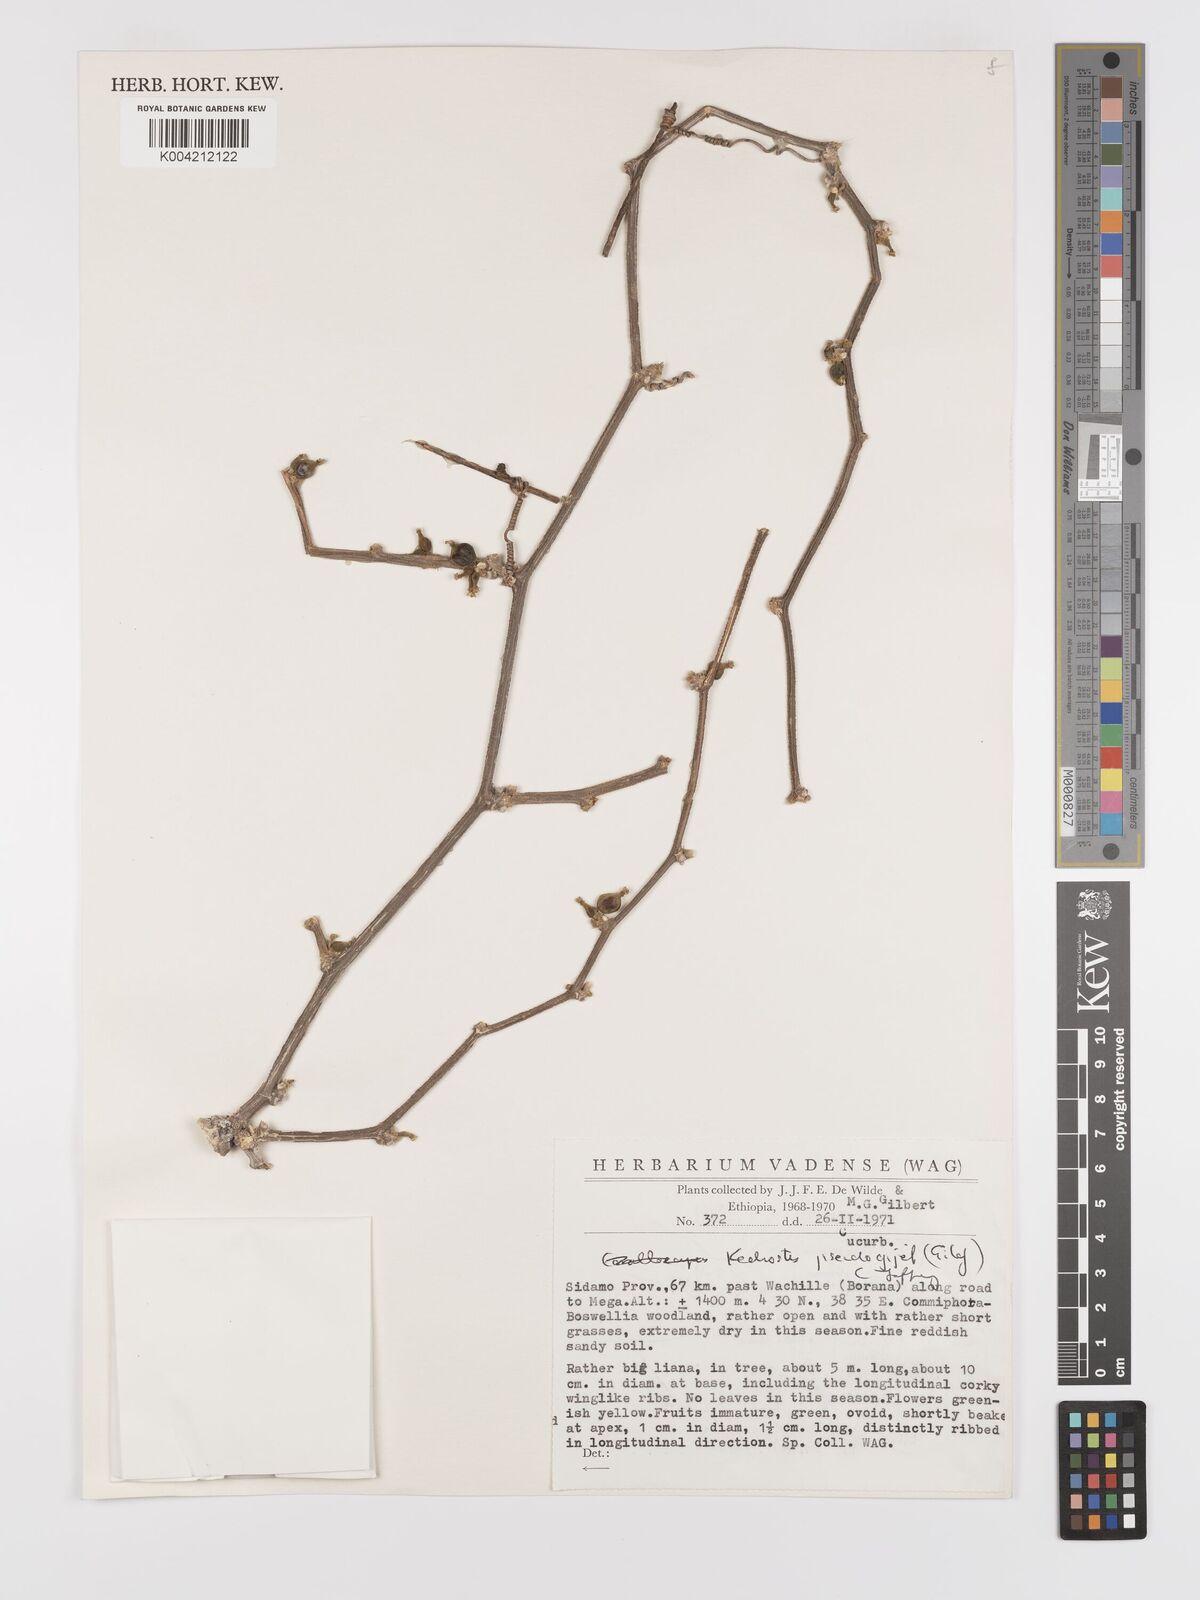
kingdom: Plantae
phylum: Tracheophyta
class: Magnoliopsida
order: Cucurbitales
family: Cucurbitaceae
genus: Kedrostis
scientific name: Kedrostis pseudogijef
